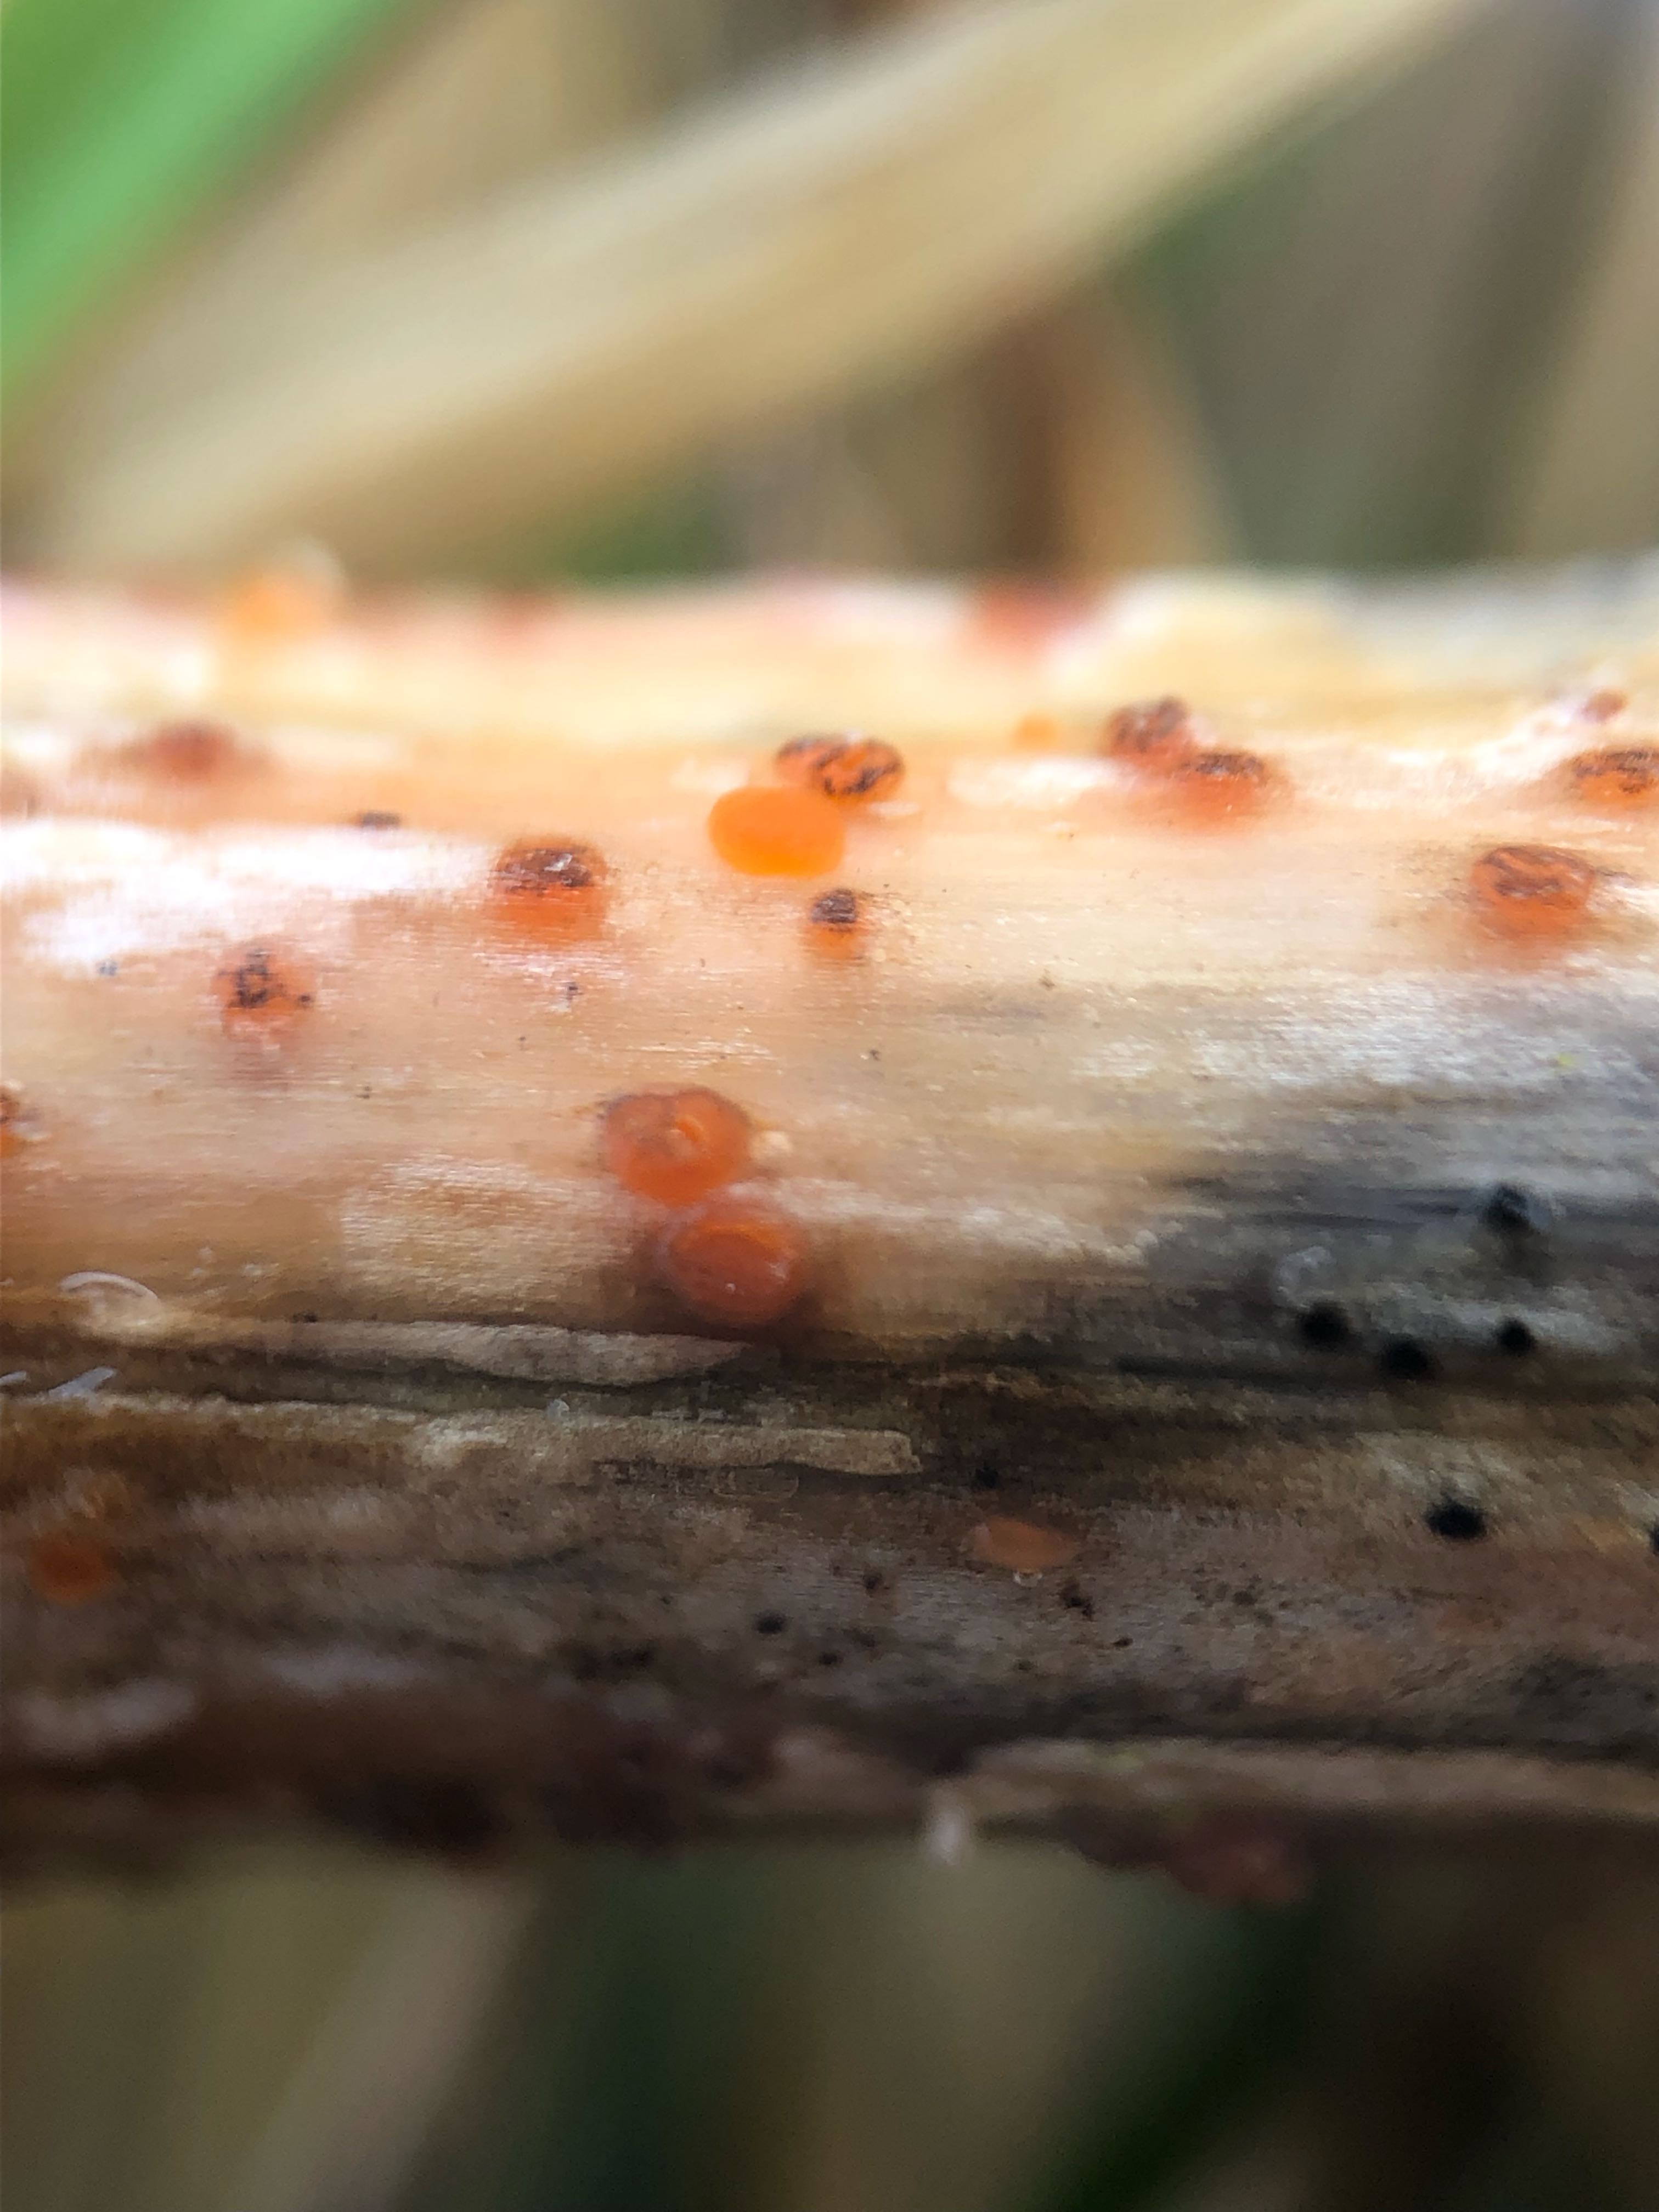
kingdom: Fungi
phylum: Ascomycota
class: Leotiomycetes
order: Helotiales
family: Calloriaceae
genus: Calloria
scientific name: Calloria urticae
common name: nælde-orangeskive
